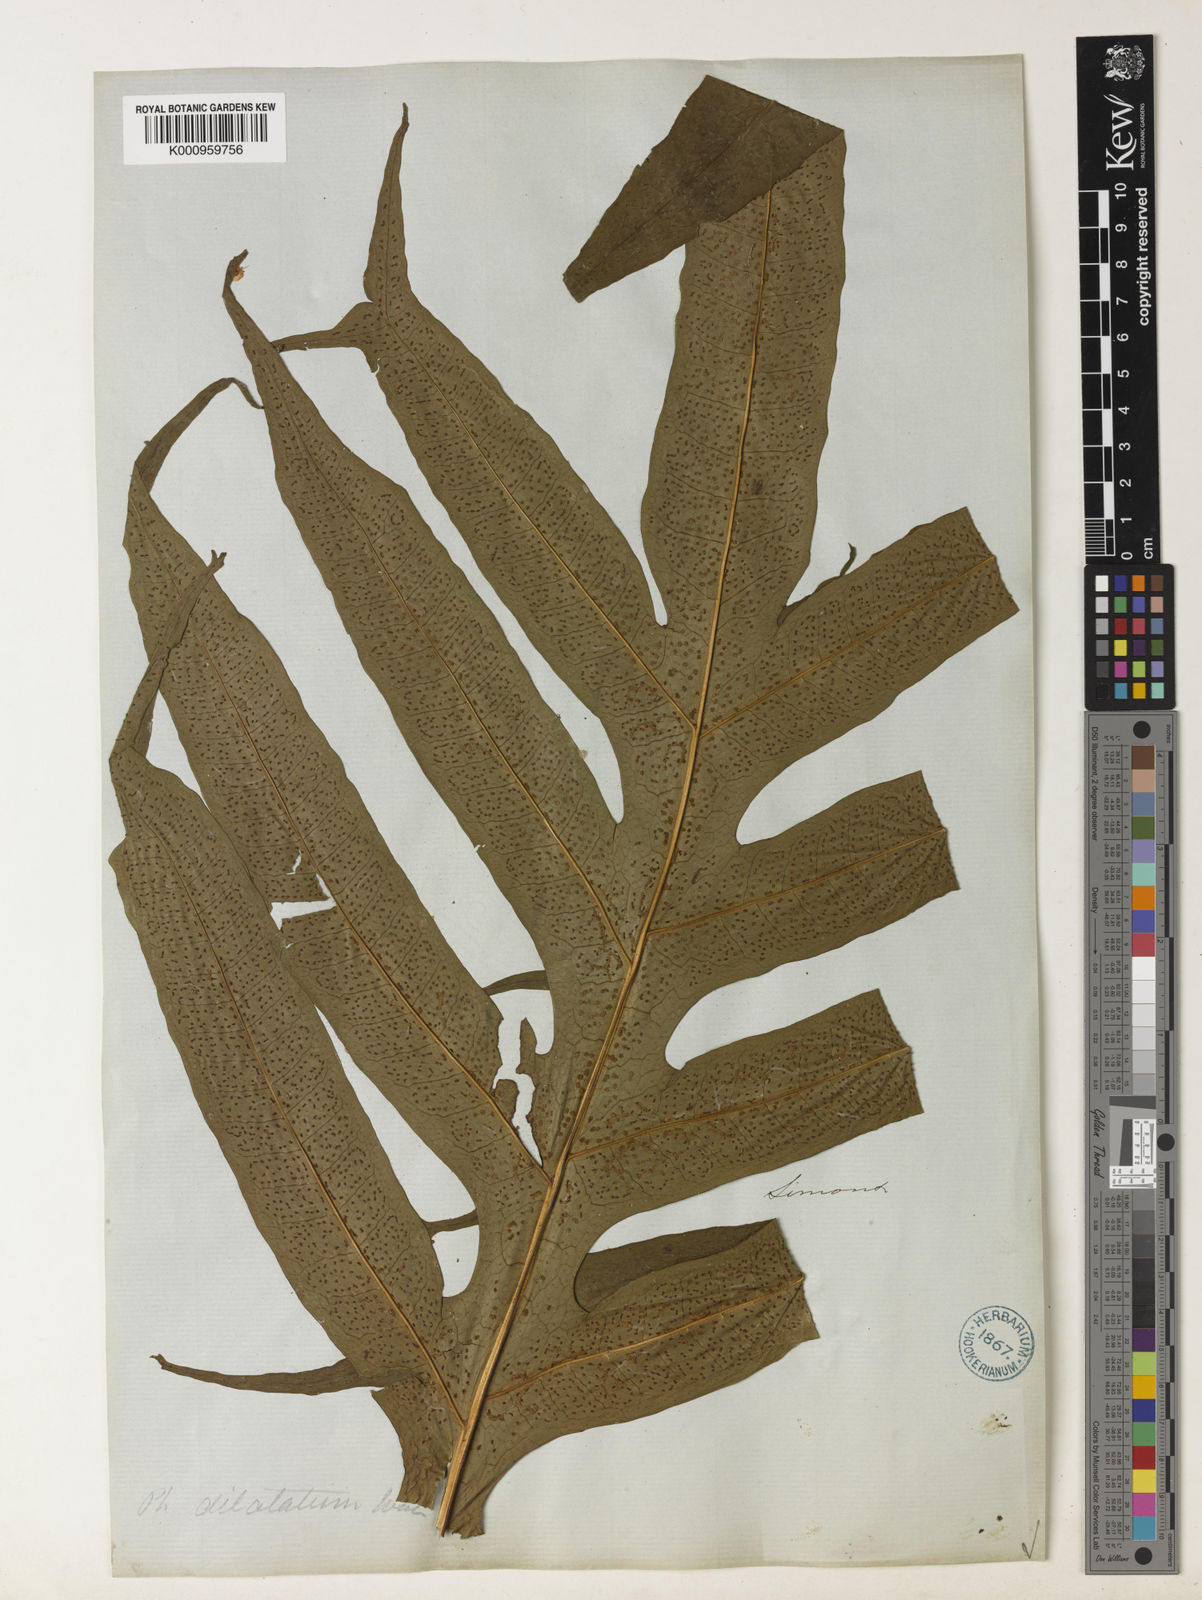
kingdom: Plantae
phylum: Tracheophyta
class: Polypodiopsida
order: Polypodiales
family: Polypodiaceae
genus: Leptochilus
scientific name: Leptochilus insignis
